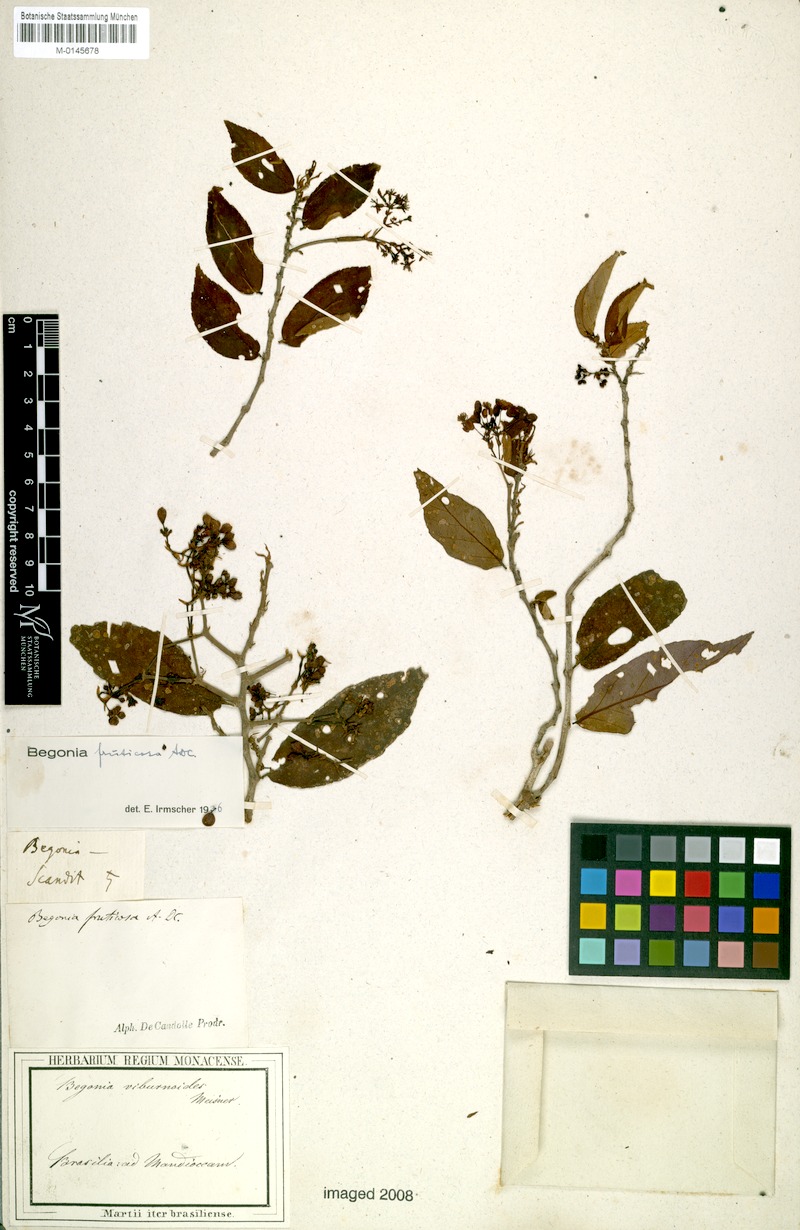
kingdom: Plantae
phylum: Tracheophyta
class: Magnoliopsida
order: Cucurbitales
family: Begoniaceae
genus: Begonia
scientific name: Begonia fruticosa
